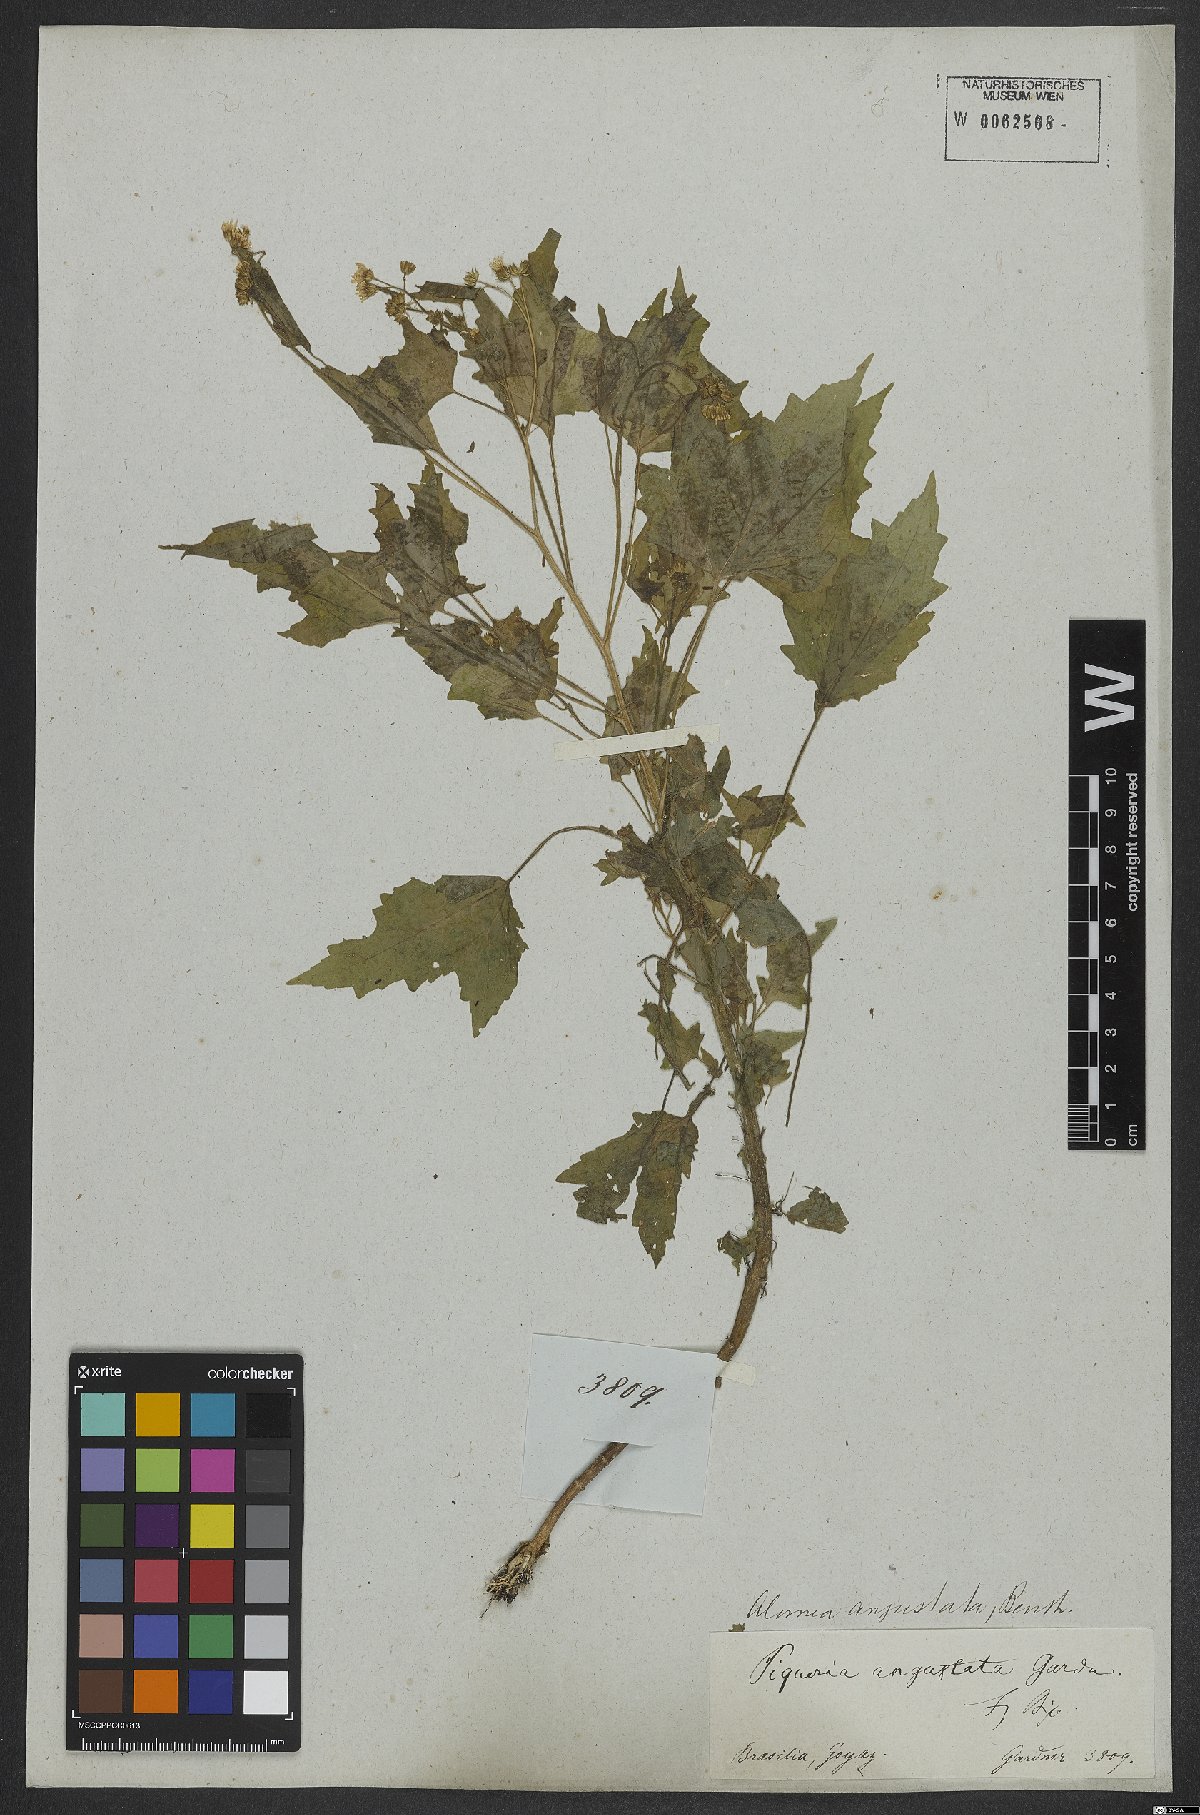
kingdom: Plantae
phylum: Tracheophyta
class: Magnoliopsida
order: Asterales
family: Asteraceae
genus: Gardnerina
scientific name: Gardnerina angustata
